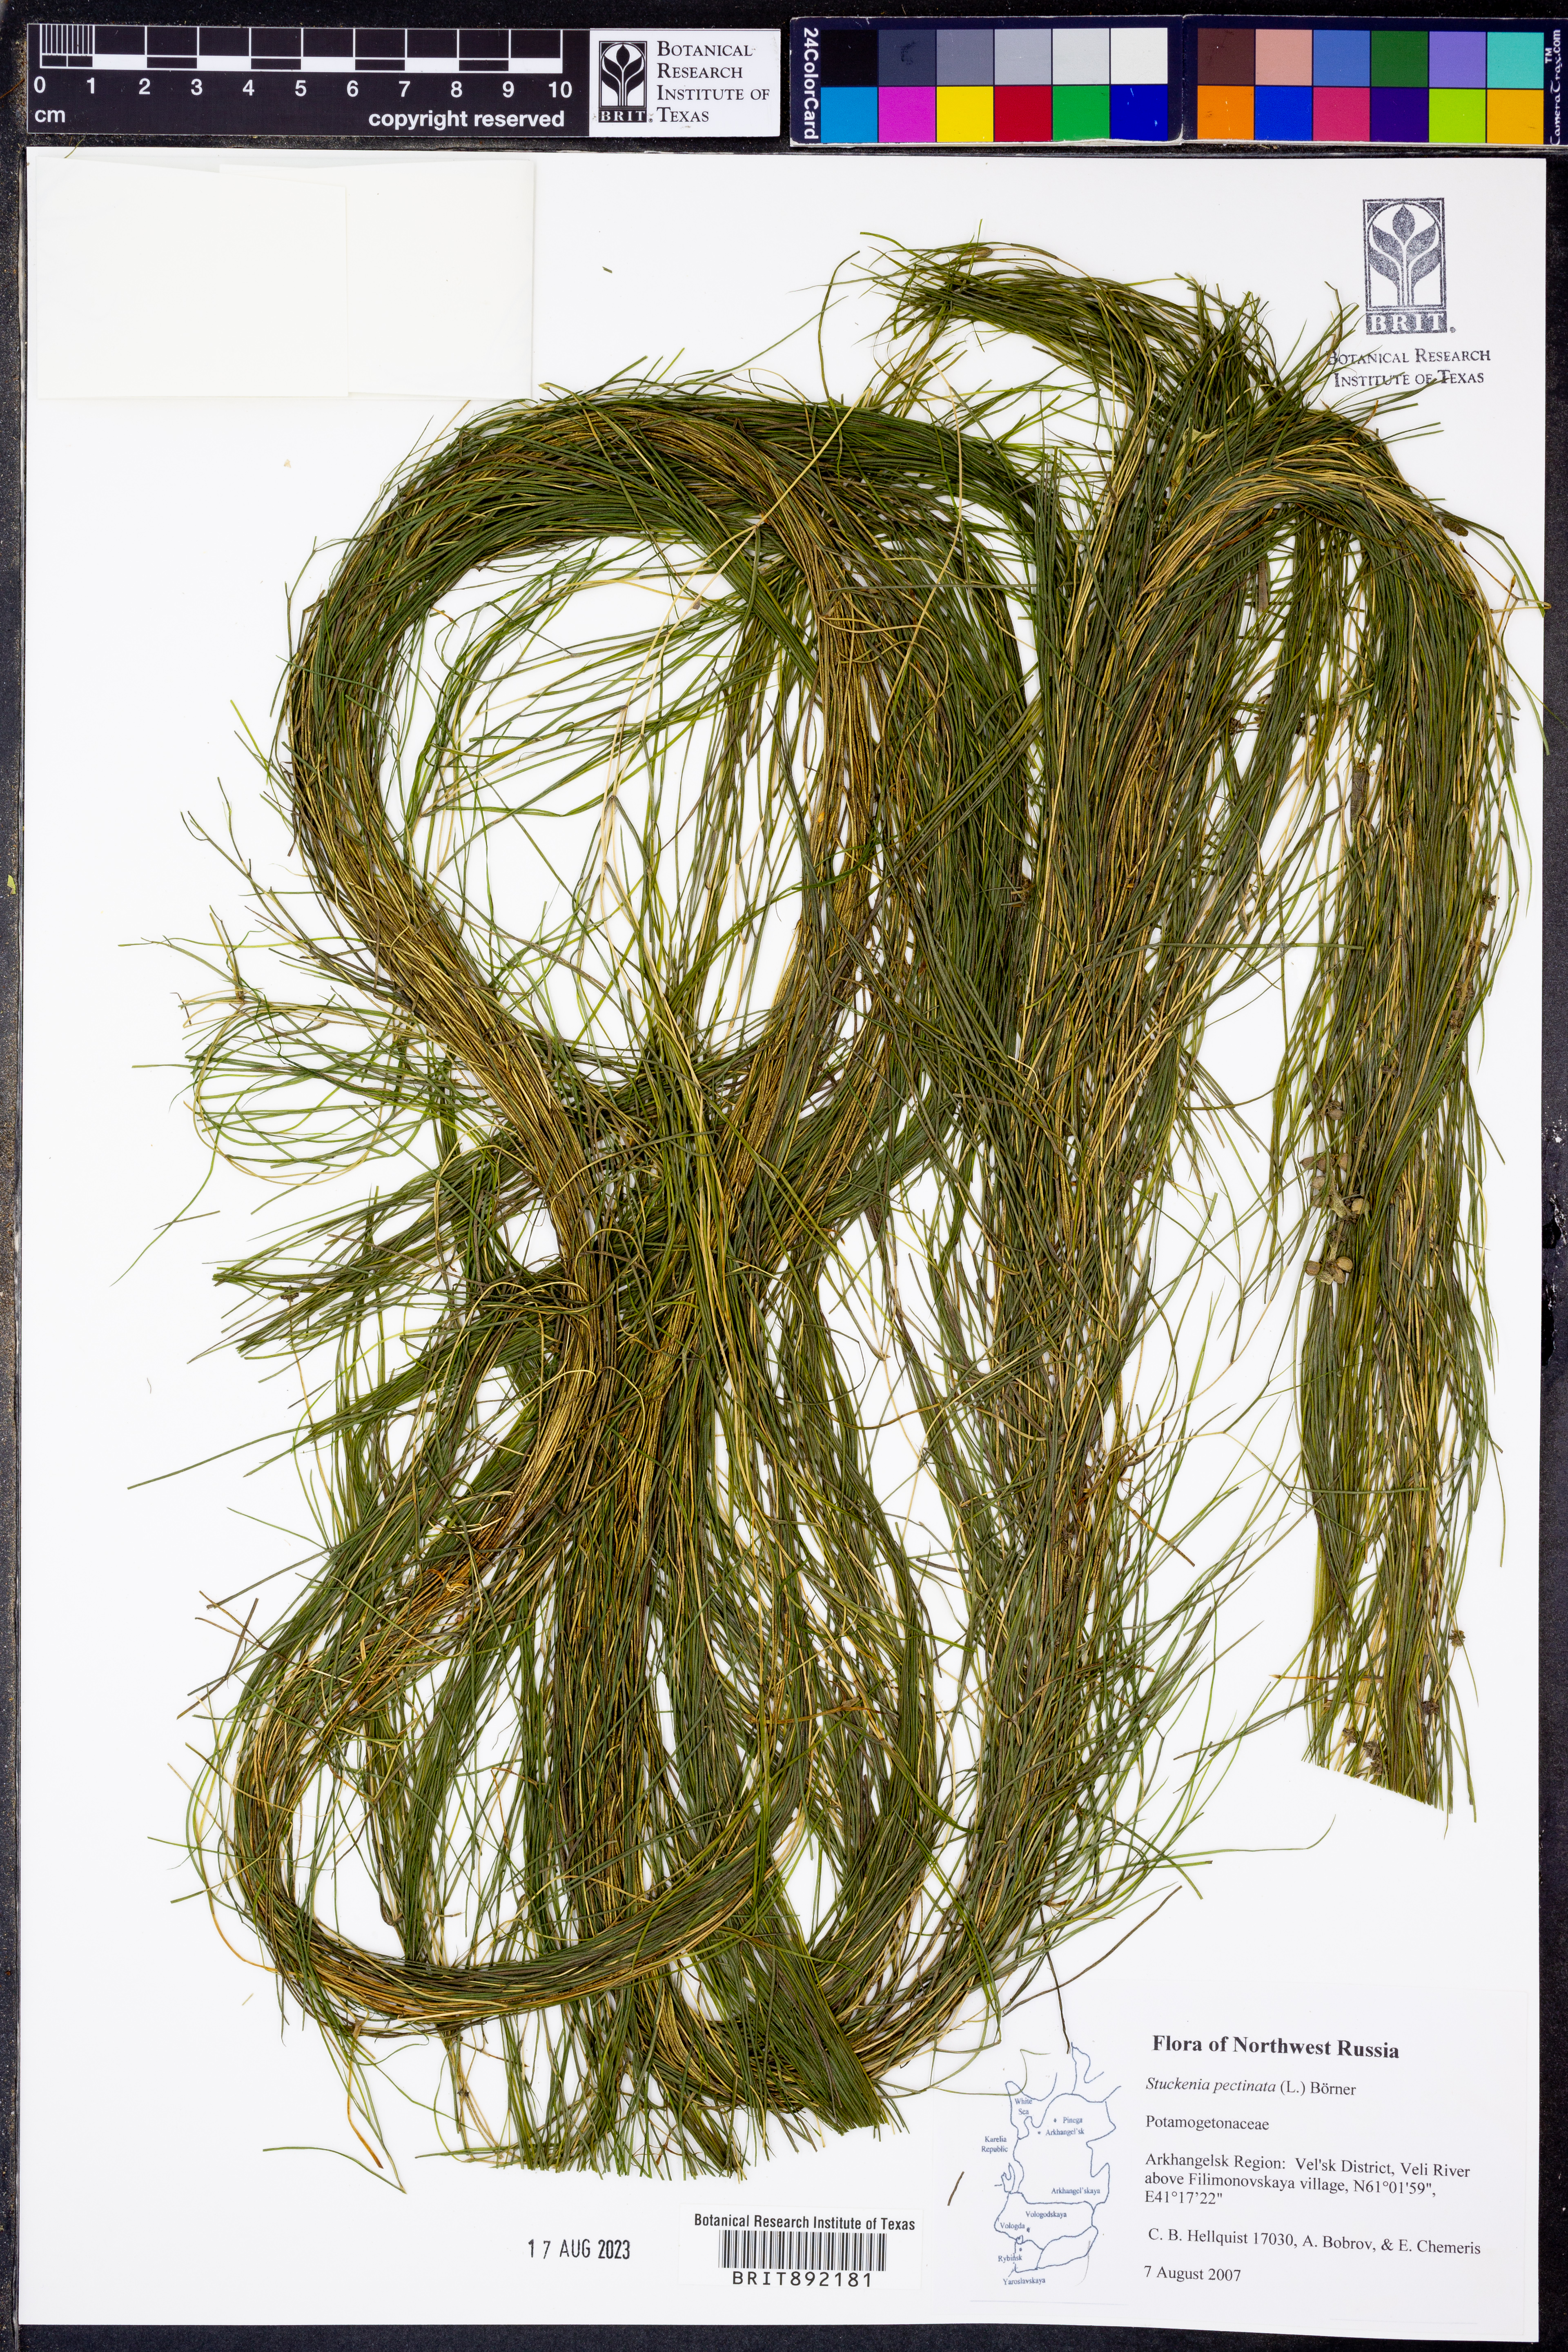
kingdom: Plantae
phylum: Tracheophyta
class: Liliopsida
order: Alismatales
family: Potamogetonaceae
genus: Stuckenia
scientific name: Stuckenia pectinata
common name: Sago pondweed
